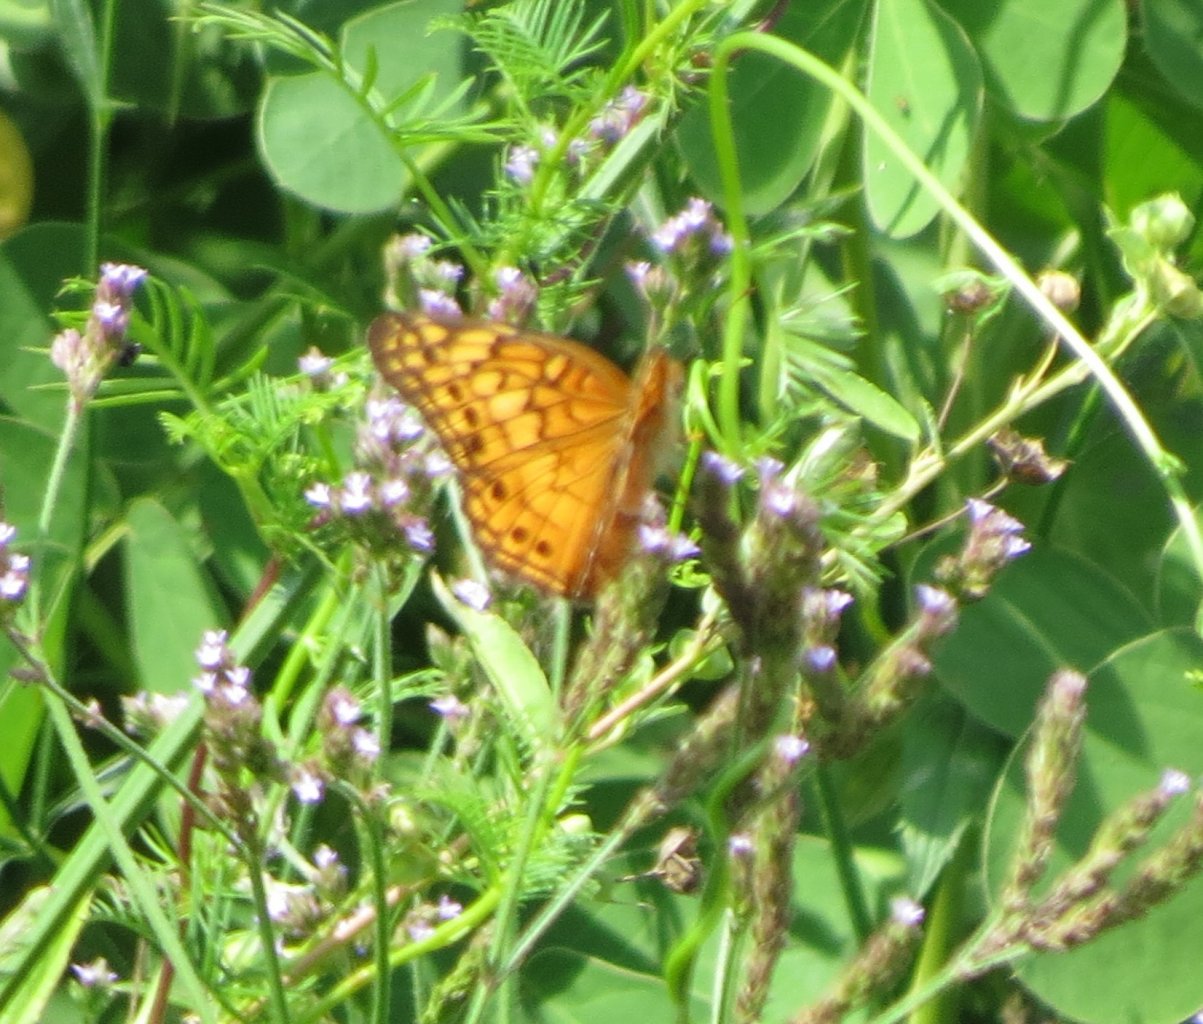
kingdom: Animalia
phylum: Arthropoda
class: Insecta
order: Lepidoptera
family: Nymphalidae
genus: Euptoieta
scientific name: Euptoieta claudia
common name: Variegated Fritillary
